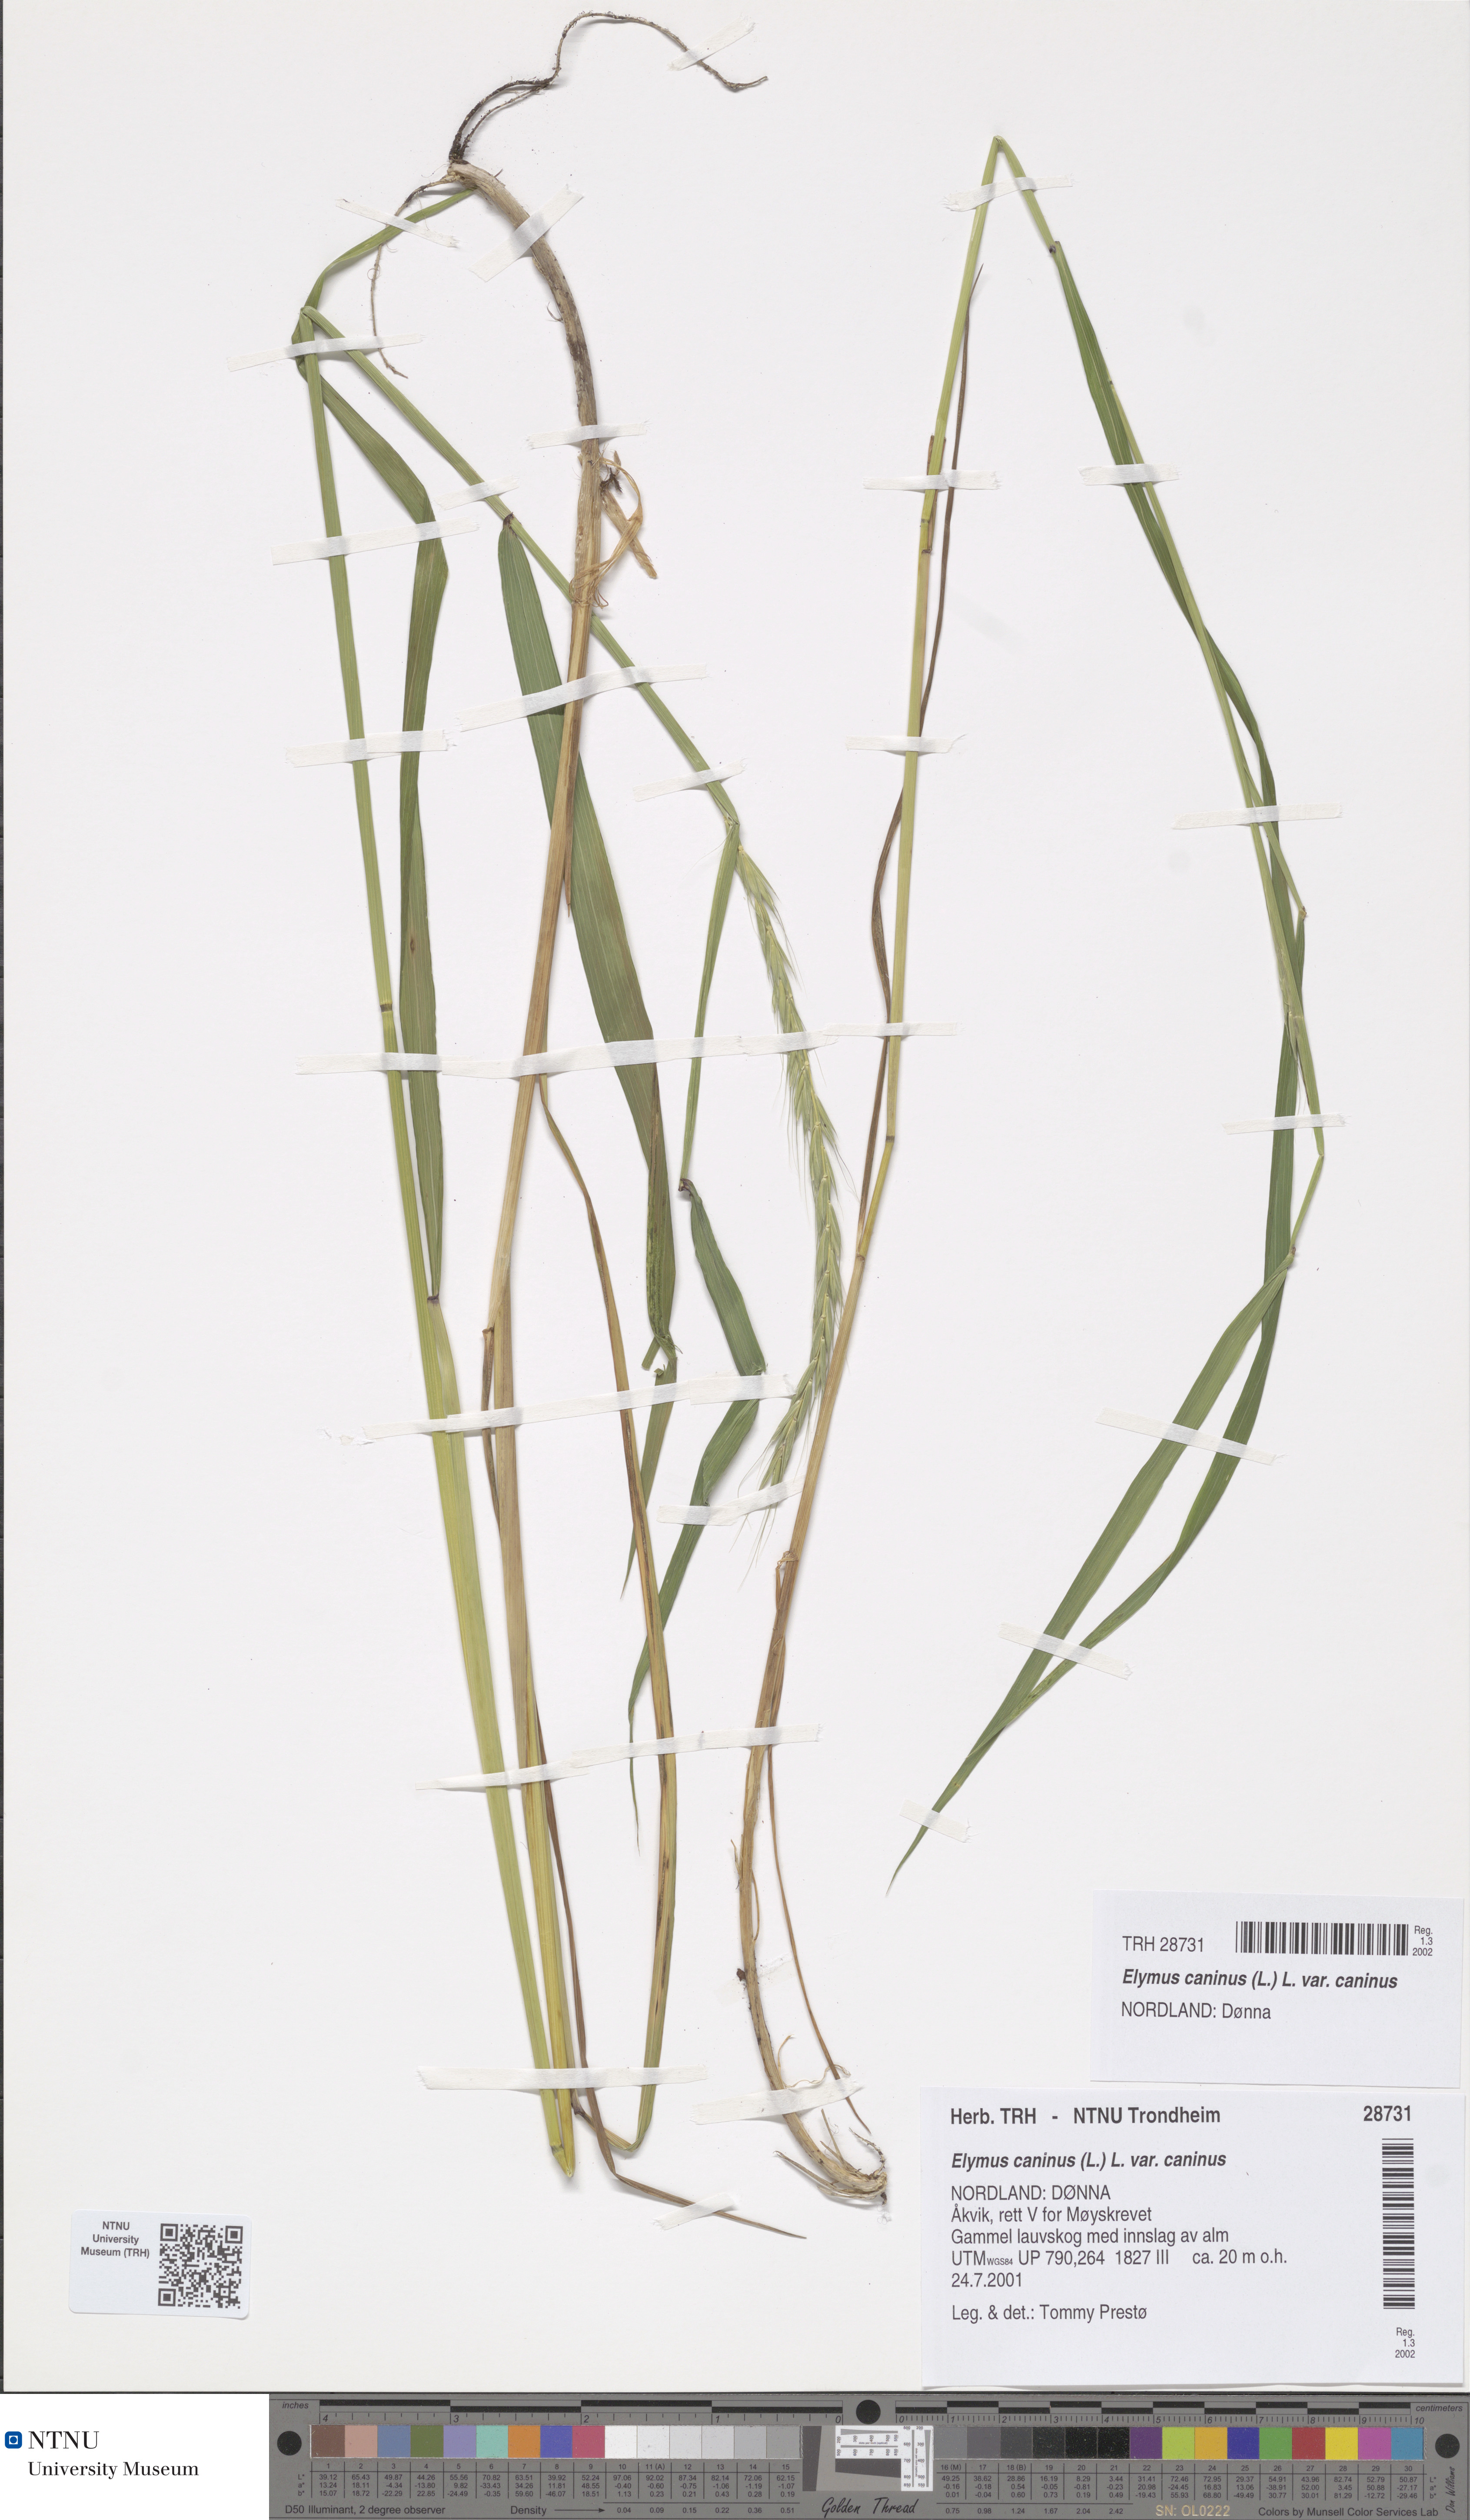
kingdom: Plantae
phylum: Tracheophyta
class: Liliopsida
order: Poales
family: Poaceae
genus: Elymus
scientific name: Elymus caninus
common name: Bearded couch
